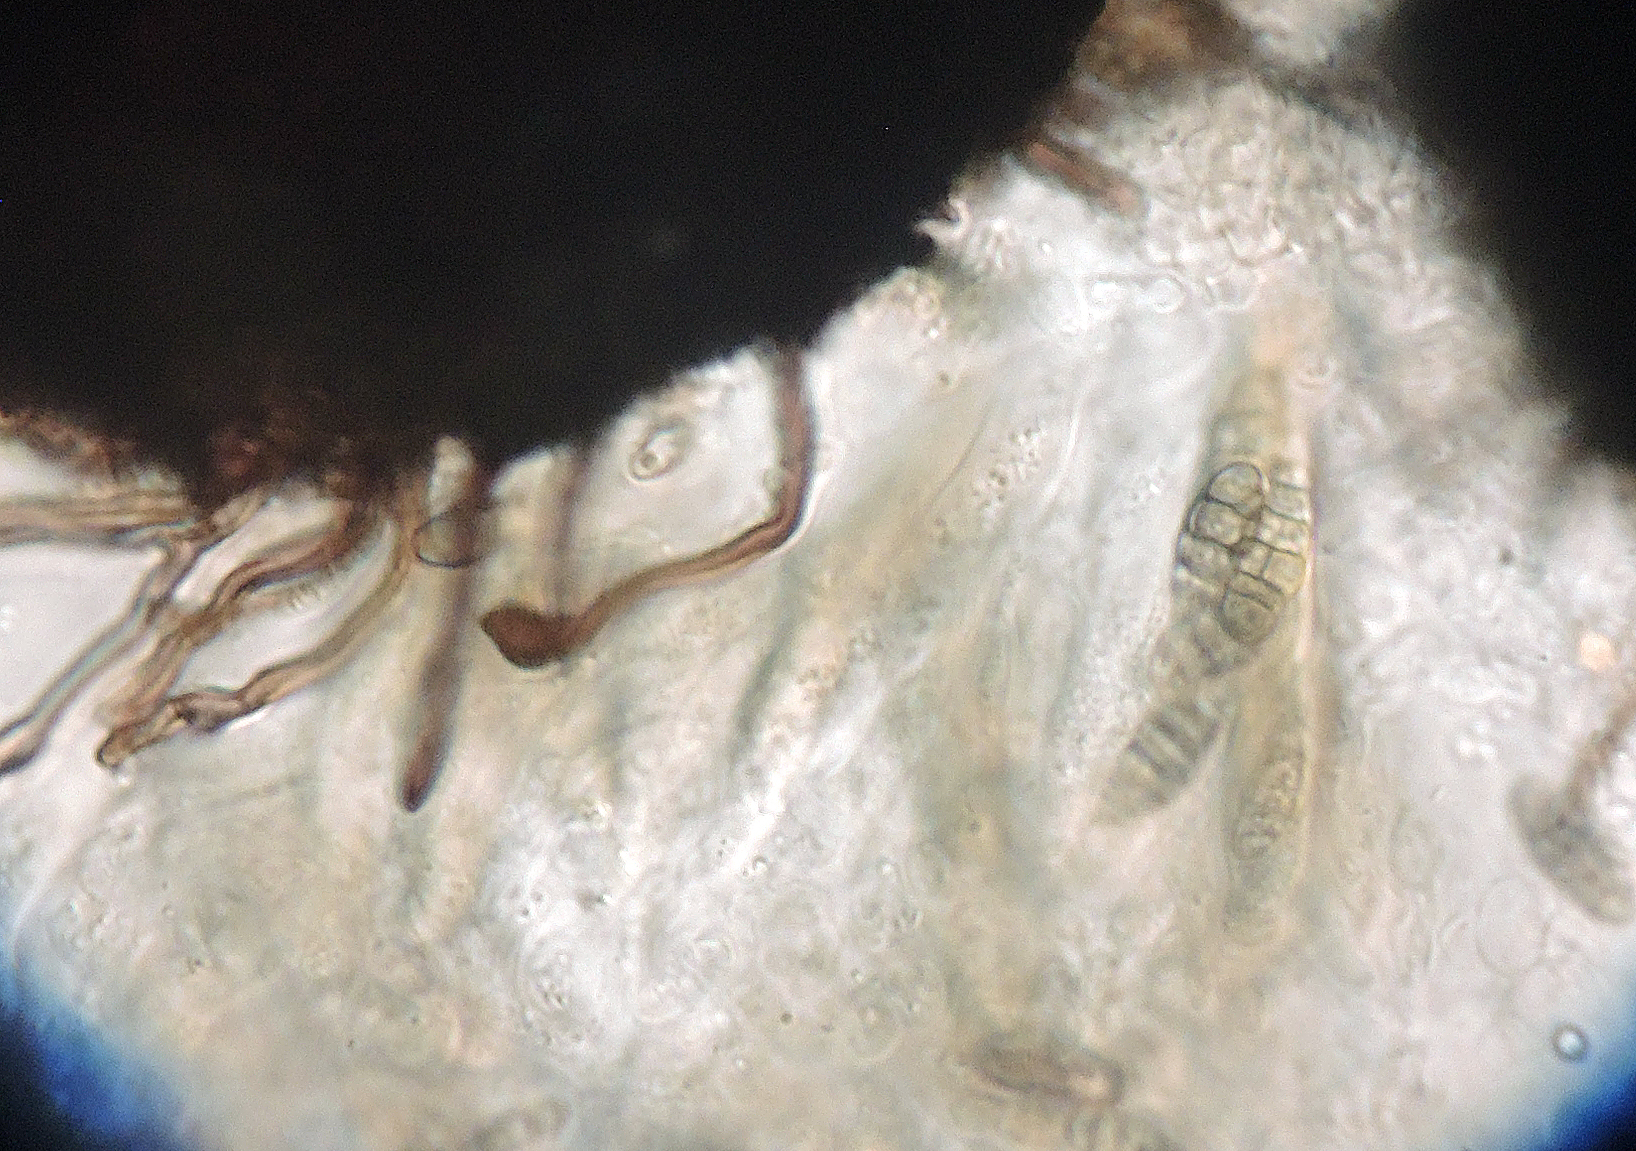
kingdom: Fungi
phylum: Ascomycota
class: Eurotiomycetes
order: Chaetothyriales
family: Herpotrichiellaceae
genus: Capronia
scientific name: Capronia pulcherrima
